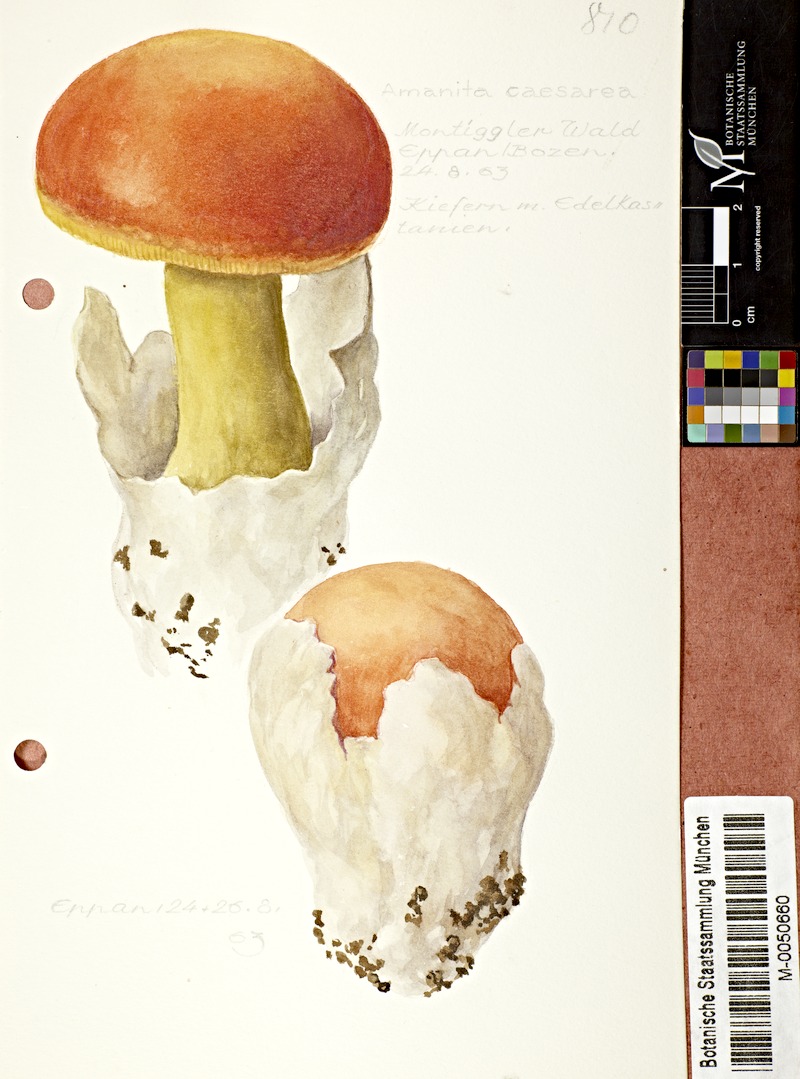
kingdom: Fungi
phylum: Basidiomycota
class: Agaricomycetes
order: Agaricales
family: Amanitaceae
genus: Amanita
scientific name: Amanita caesarea
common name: Caesar's amanita
